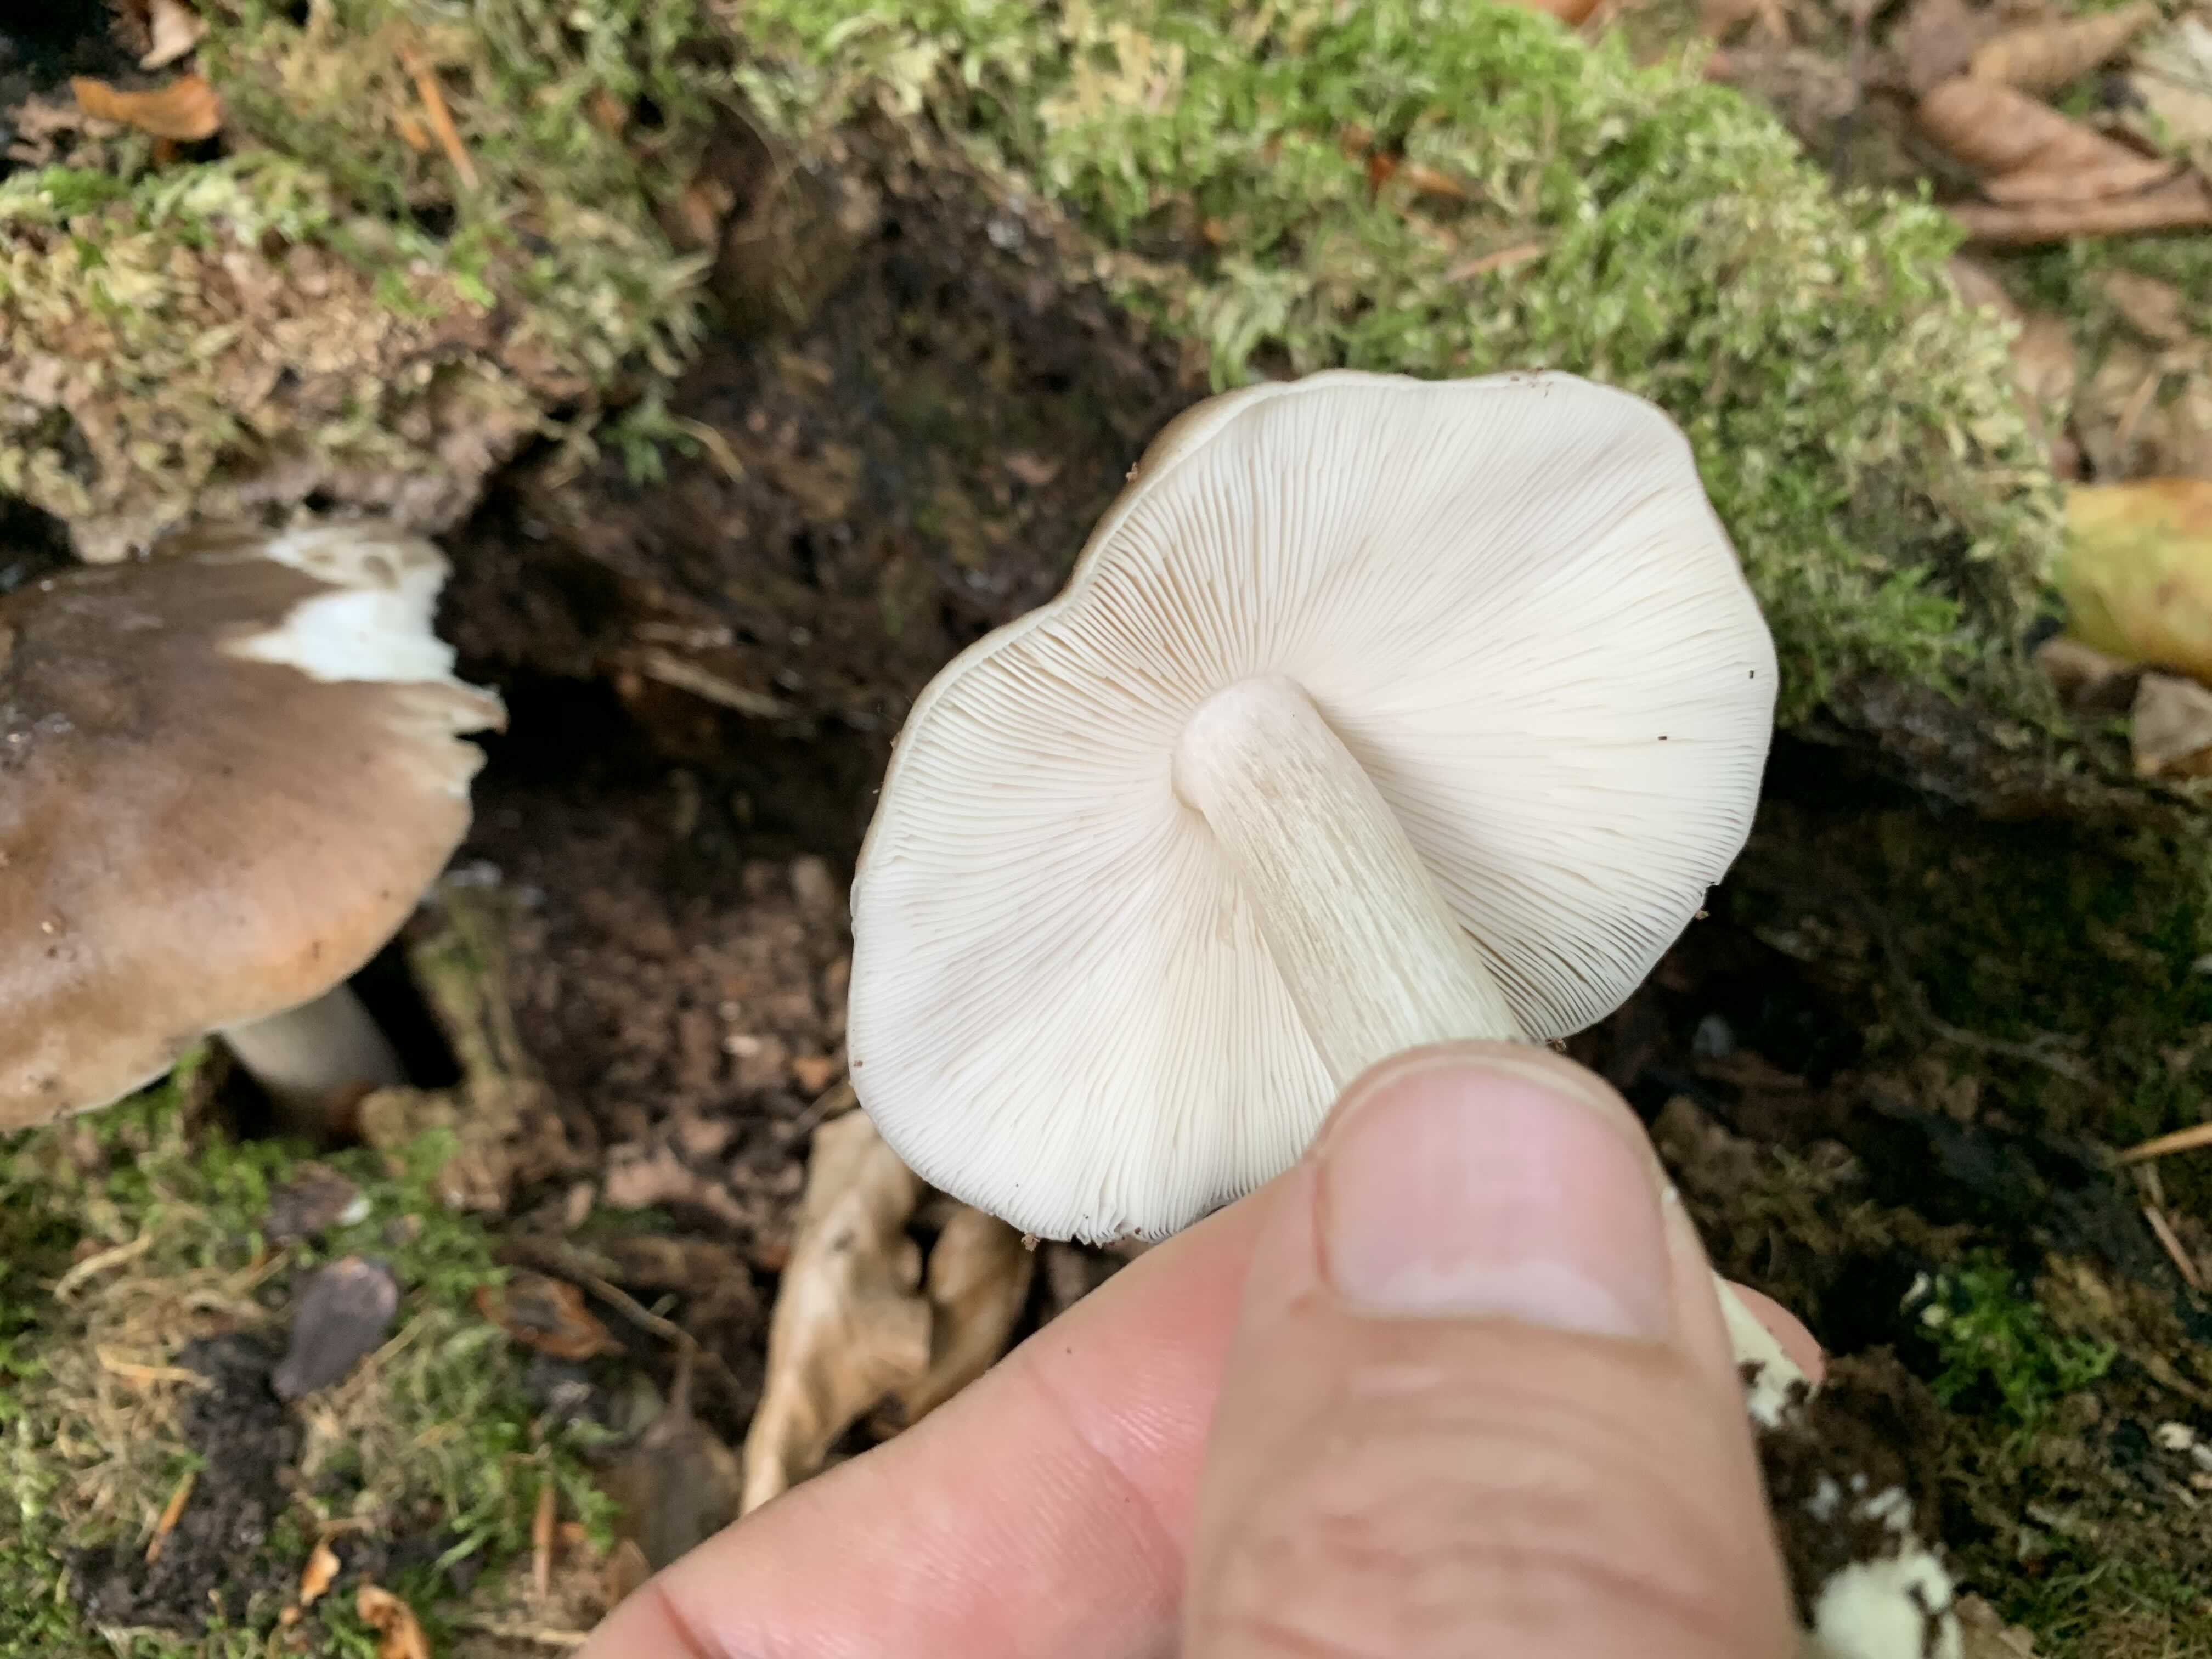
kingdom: Fungi
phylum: Basidiomycota
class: Agaricomycetes
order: Agaricales
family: Pluteaceae
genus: Pluteus
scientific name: Pluteus cervinus
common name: sodfarvet skærmhat
